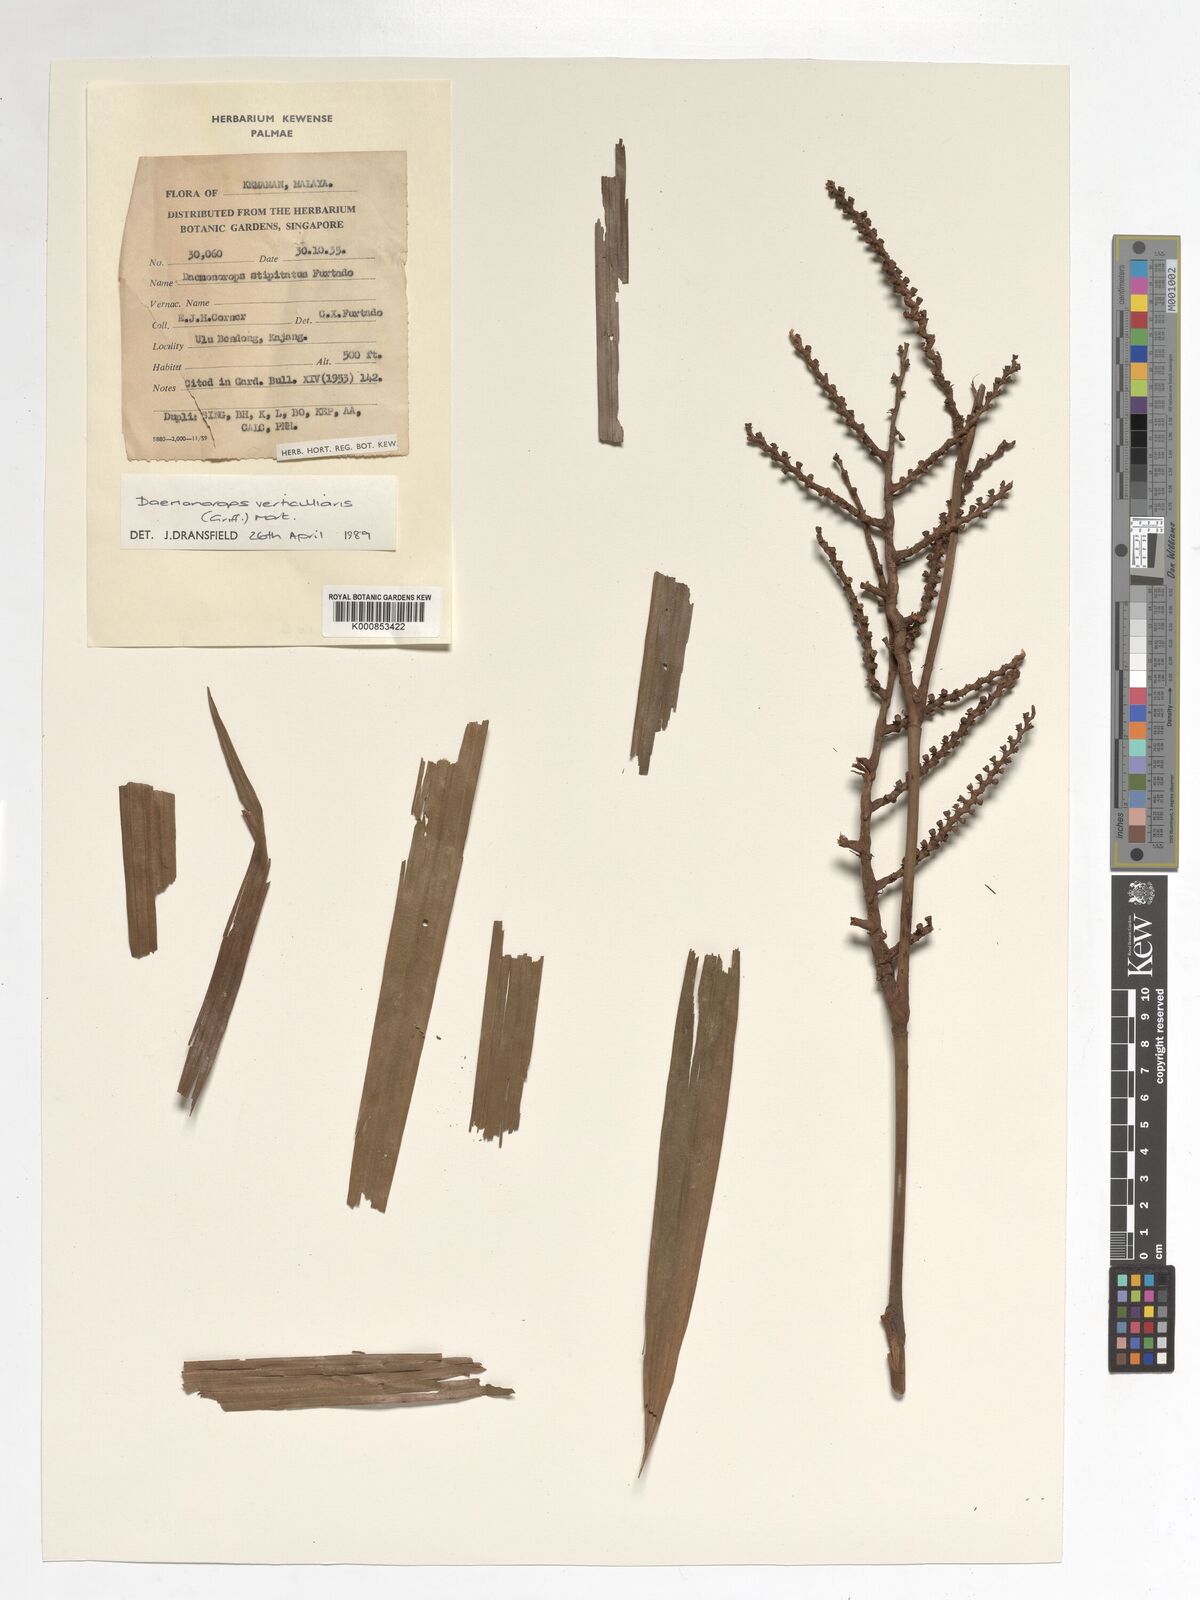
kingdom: Plantae
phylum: Tracheophyta
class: Liliopsida
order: Arecales
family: Arecaceae
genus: Calamus
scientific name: Calamus verticillaris
